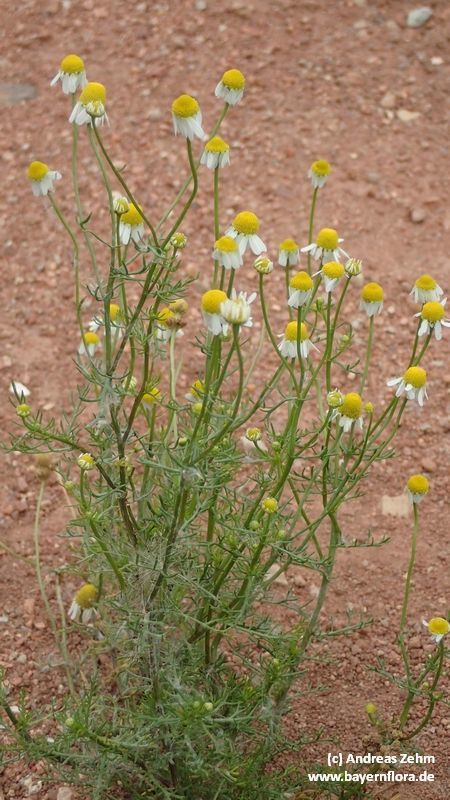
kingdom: Plantae
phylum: Tracheophyta
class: Magnoliopsida
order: Asterales
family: Asteraceae
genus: Matricaria
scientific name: Matricaria chamomilla
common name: Scented mayweed
